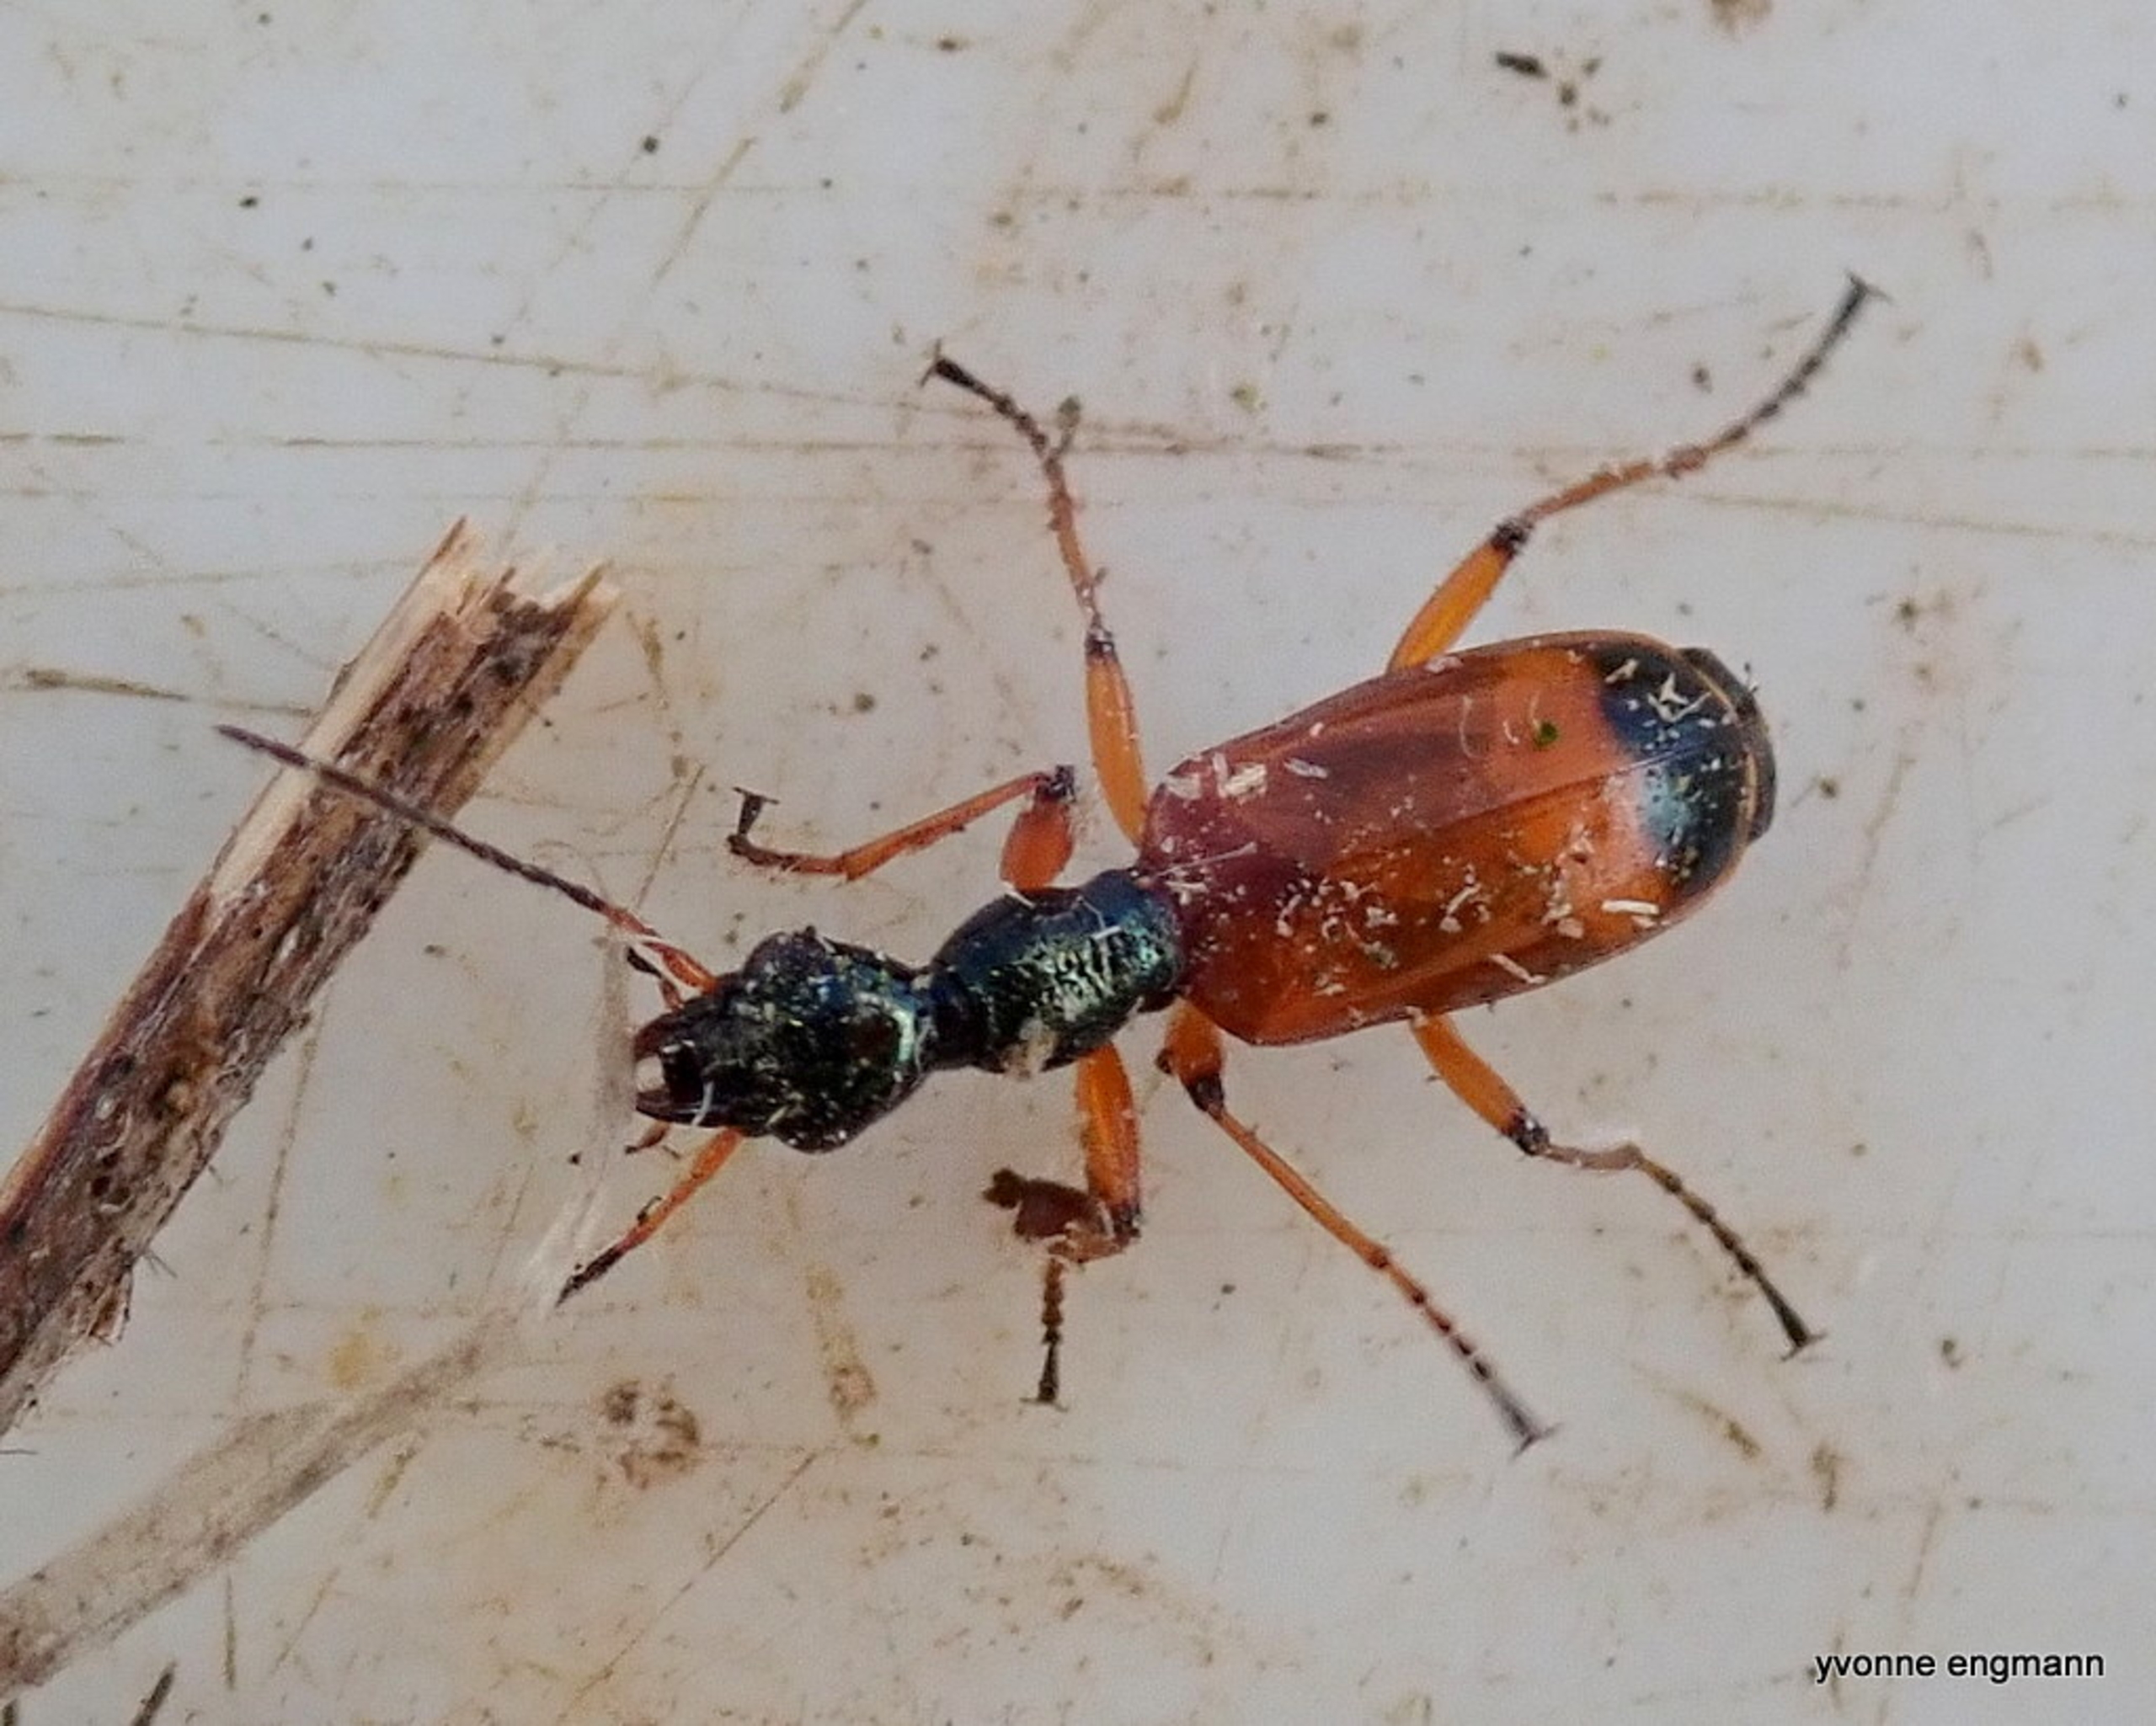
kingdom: Animalia
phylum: Arthropoda
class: Insecta
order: Coleoptera
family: Carabidae
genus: Odacantha
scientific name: Odacantha melanura
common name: Rødløber
